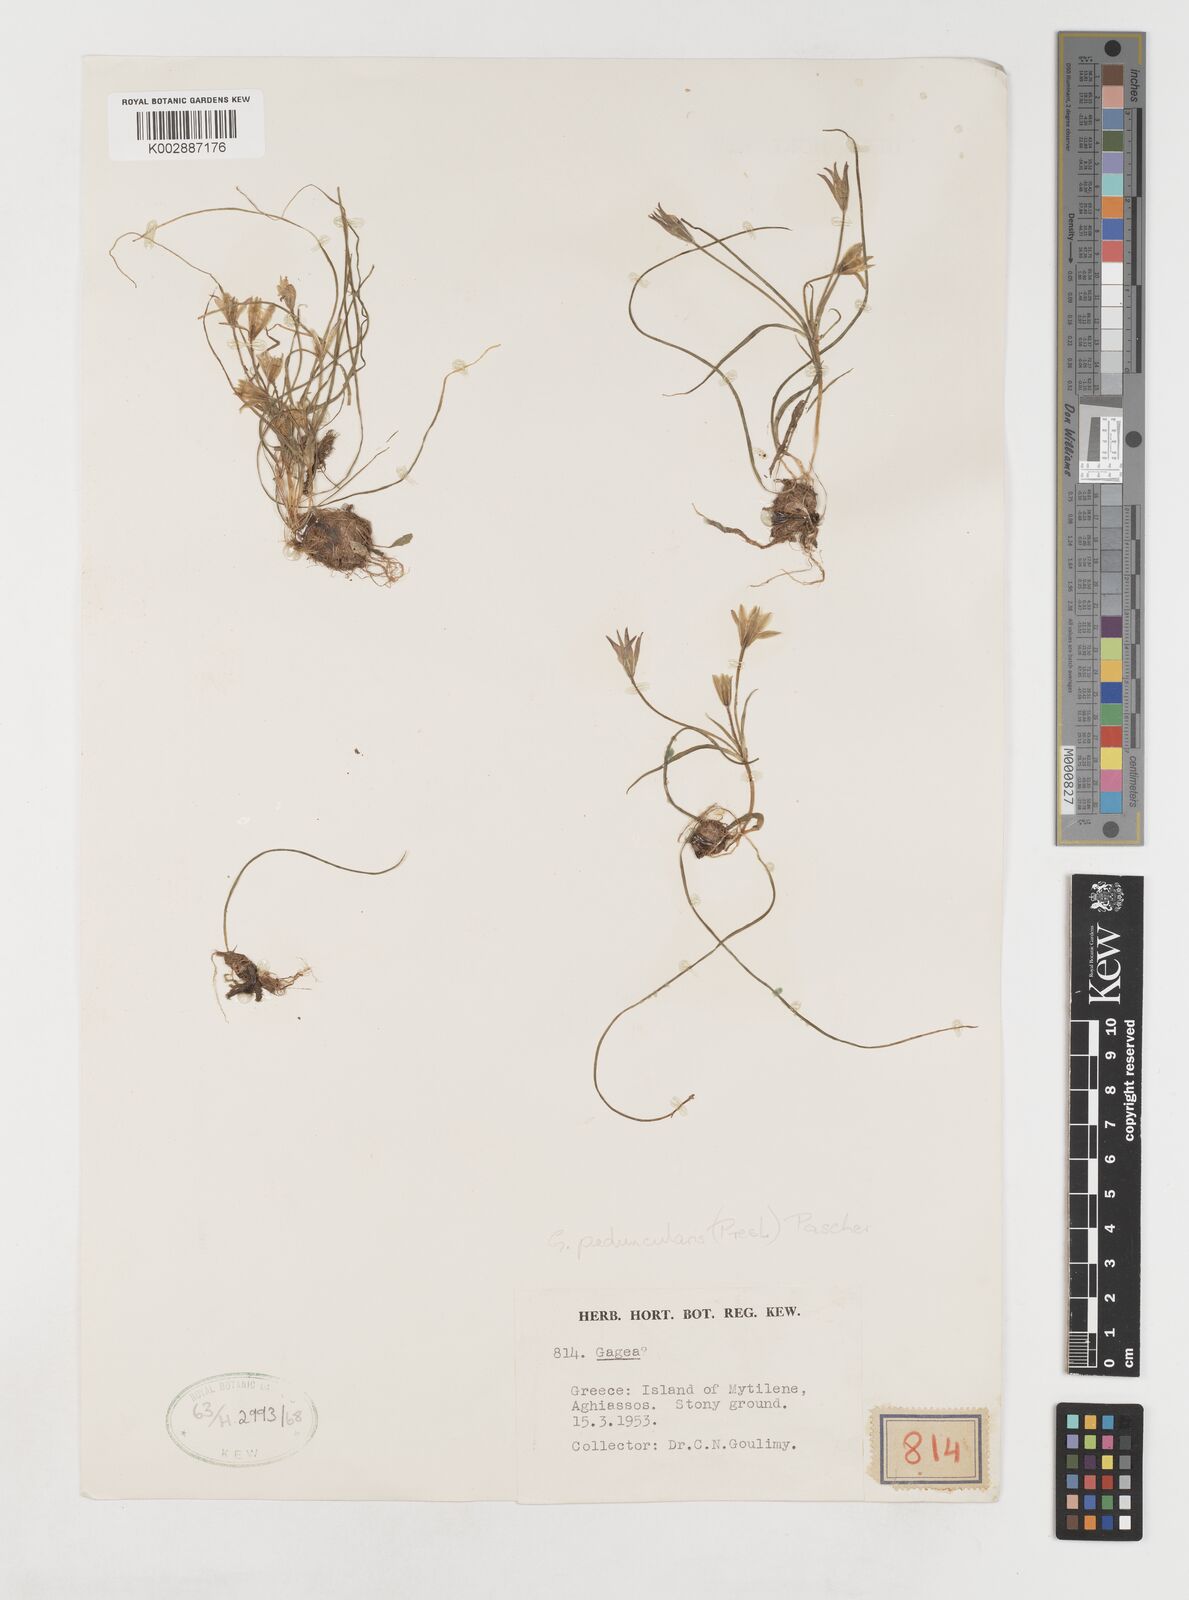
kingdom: Plantae
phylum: Tracheophyta
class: Liliopsida
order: Liliales
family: Liliaceae
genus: Gagea
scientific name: Gagea peduncularis
